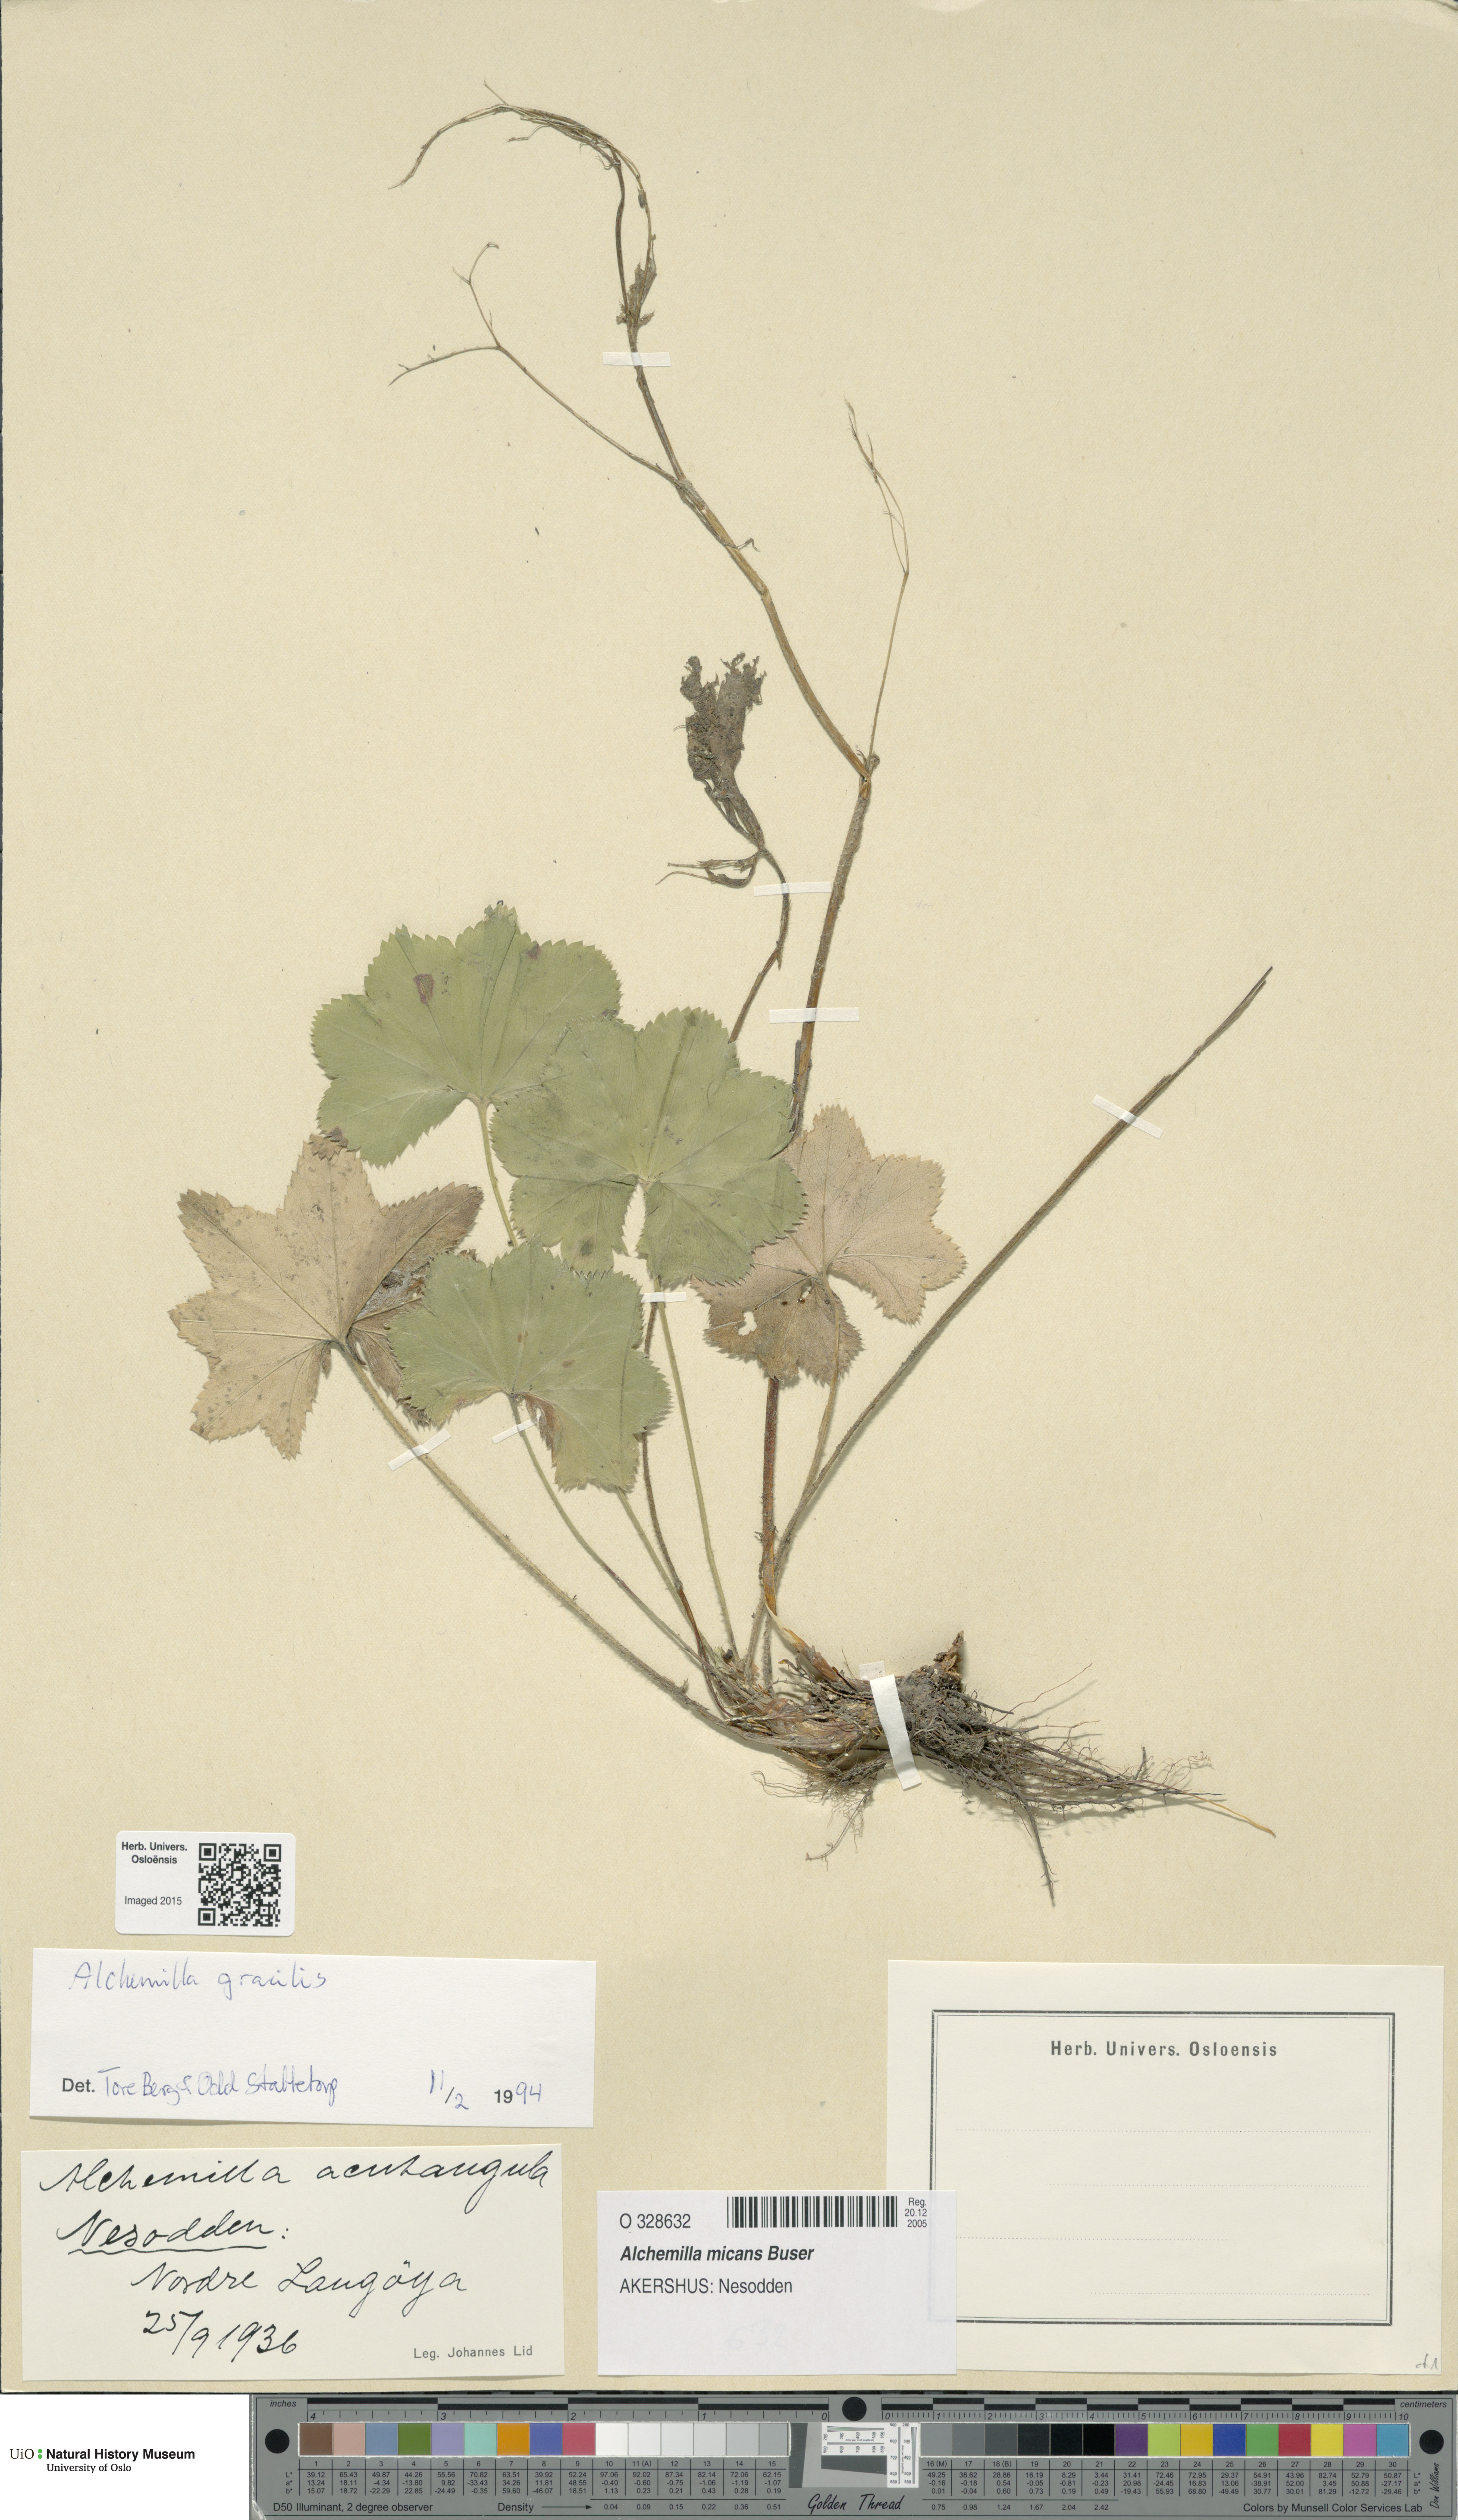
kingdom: Plantae
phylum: Tracheophyta
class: Magnoliopsida
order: Rosales
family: Rosaceae
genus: Alchemilla
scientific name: Alchemilla micans
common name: Gleaming lady's mantle
